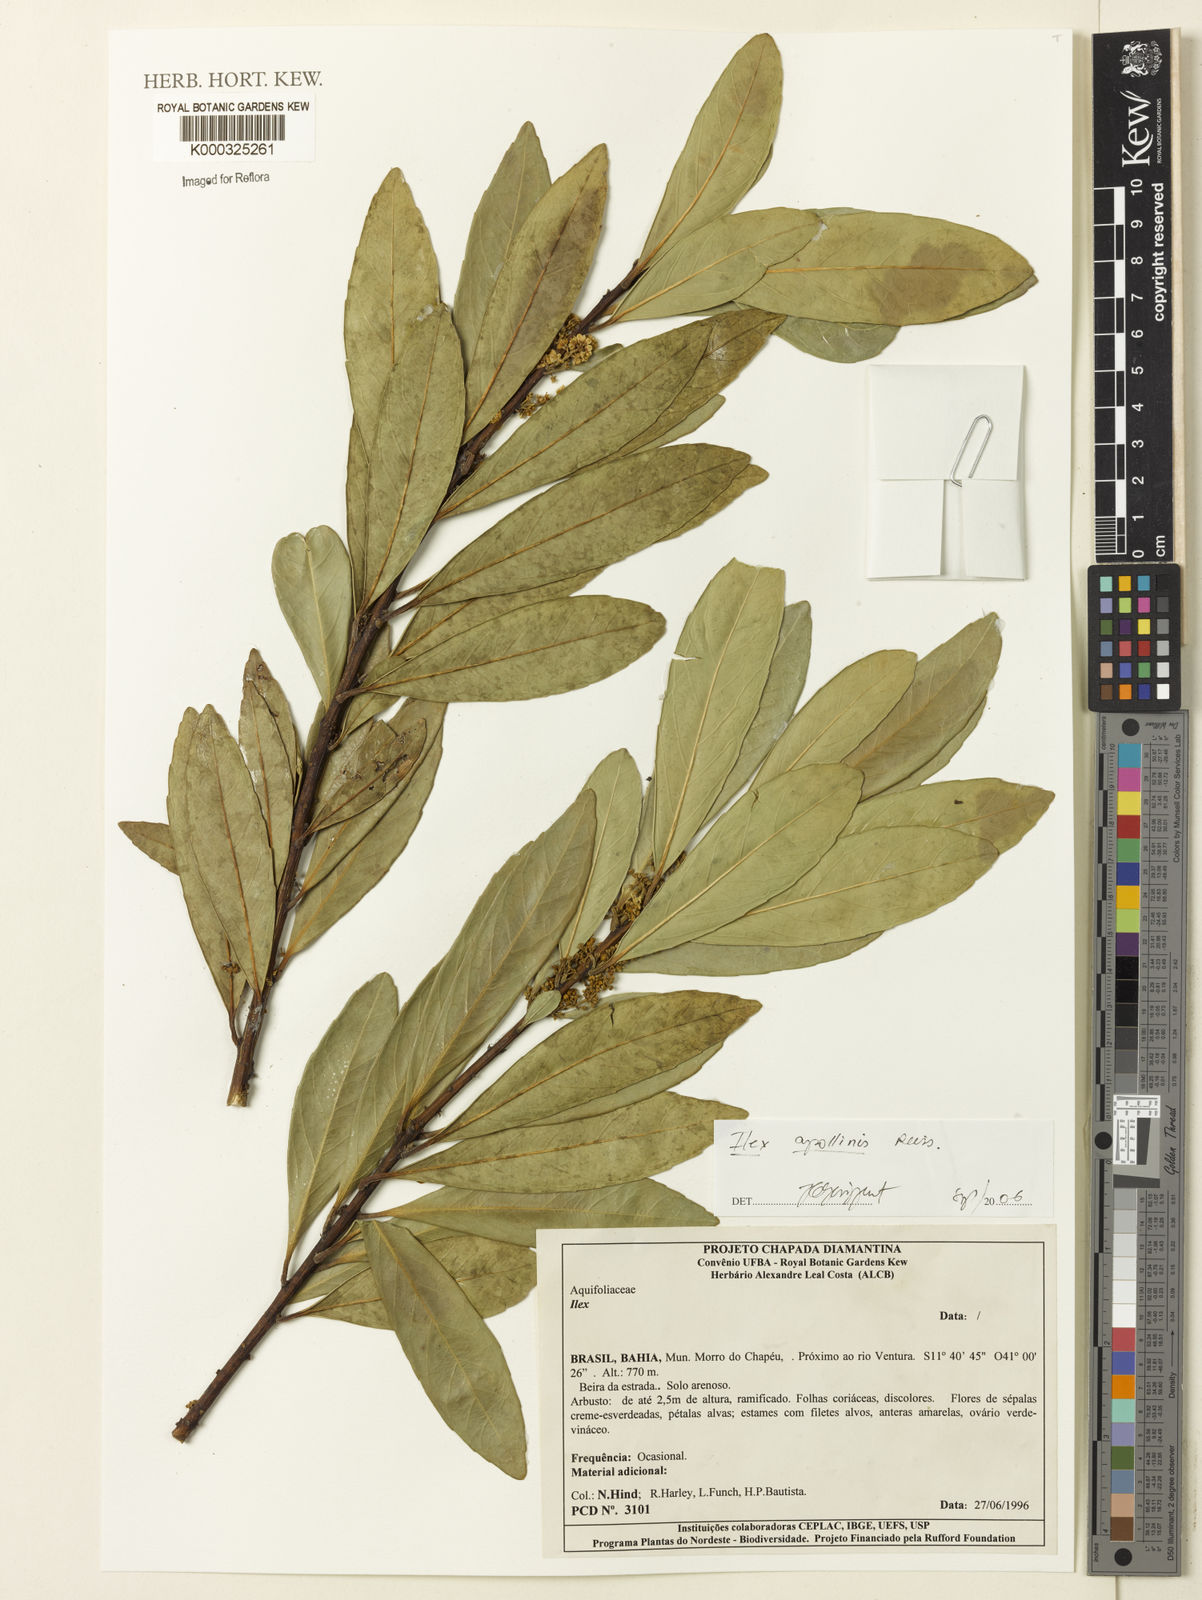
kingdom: Plantae
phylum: Tracheophyta
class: Magnoliopsida
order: Aquifoliales
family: Aquifoliaceae
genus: Ilex
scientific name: Ilex apollinis
